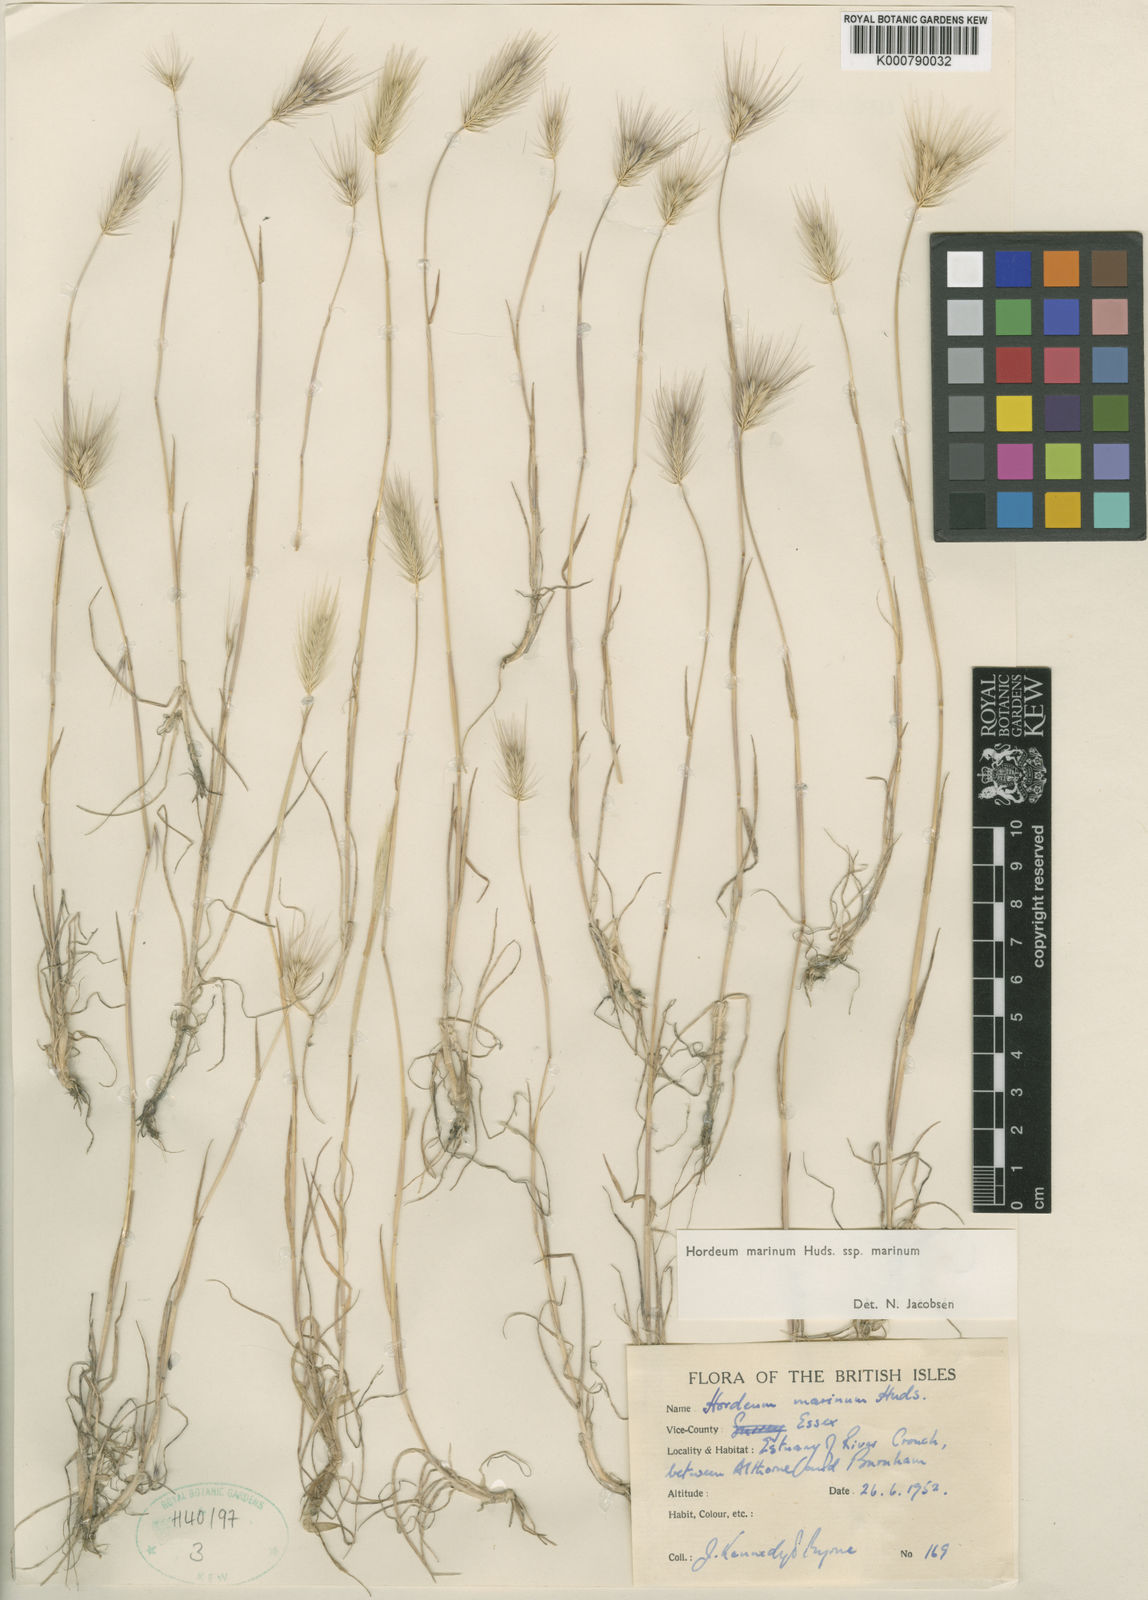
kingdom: Plantae
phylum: Tracheophyta
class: Liliopsida
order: Poales
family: Poaceae
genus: Hordeum
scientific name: Hordeum marinum
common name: Sea barley
